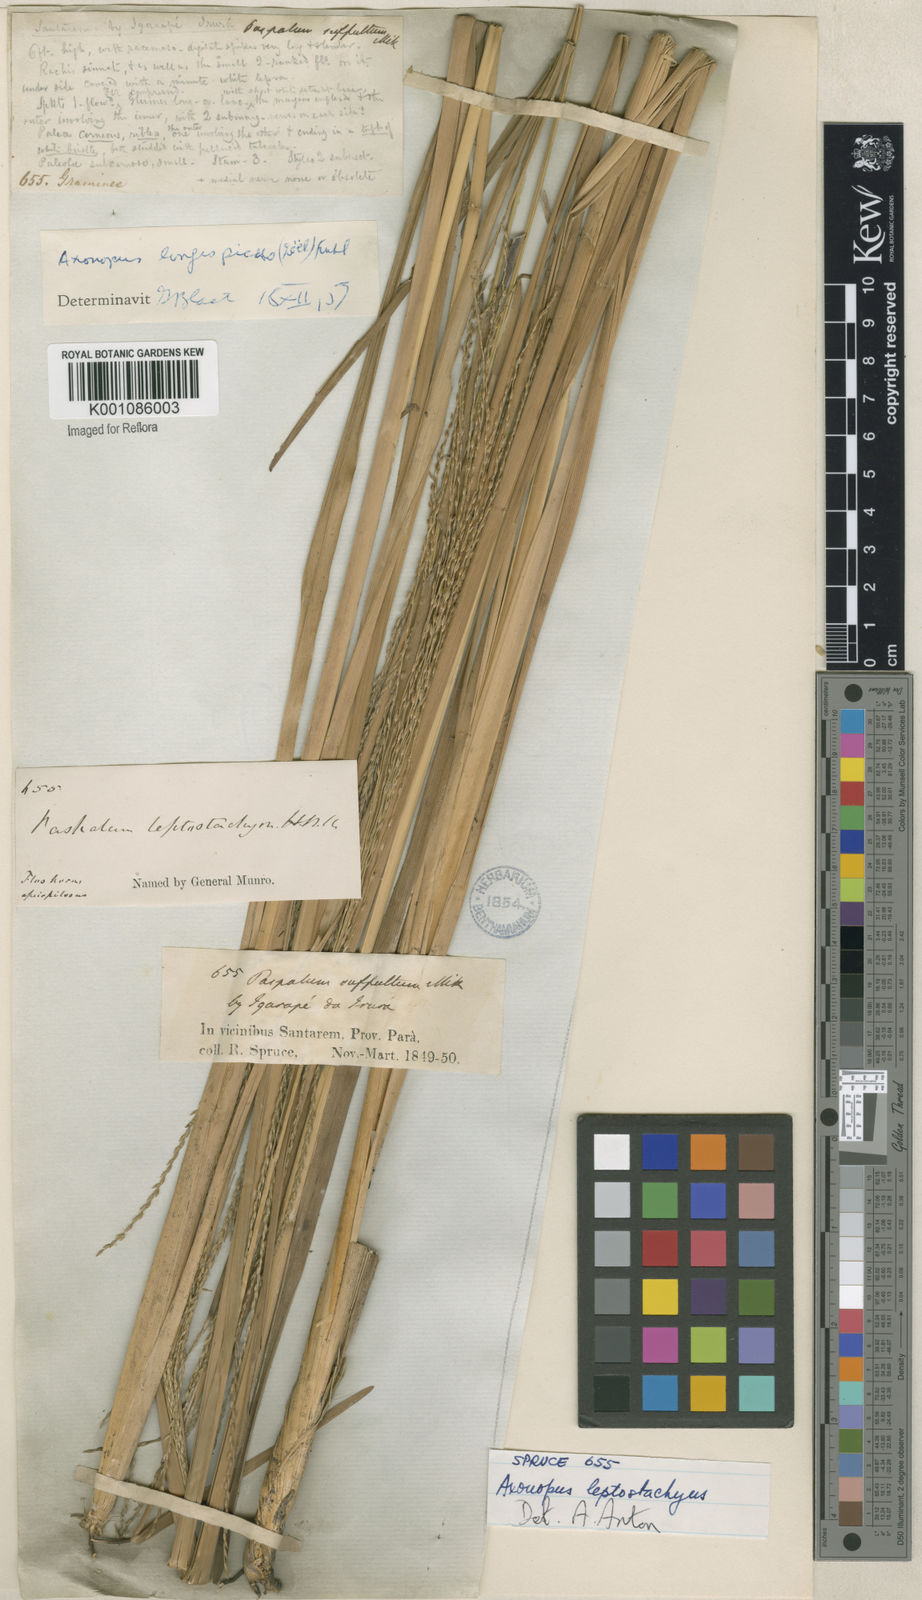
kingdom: Plantae
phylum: Tracheophyta
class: Liliopsida
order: Poales
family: Poaceae
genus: Axonopus
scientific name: Axonopus
